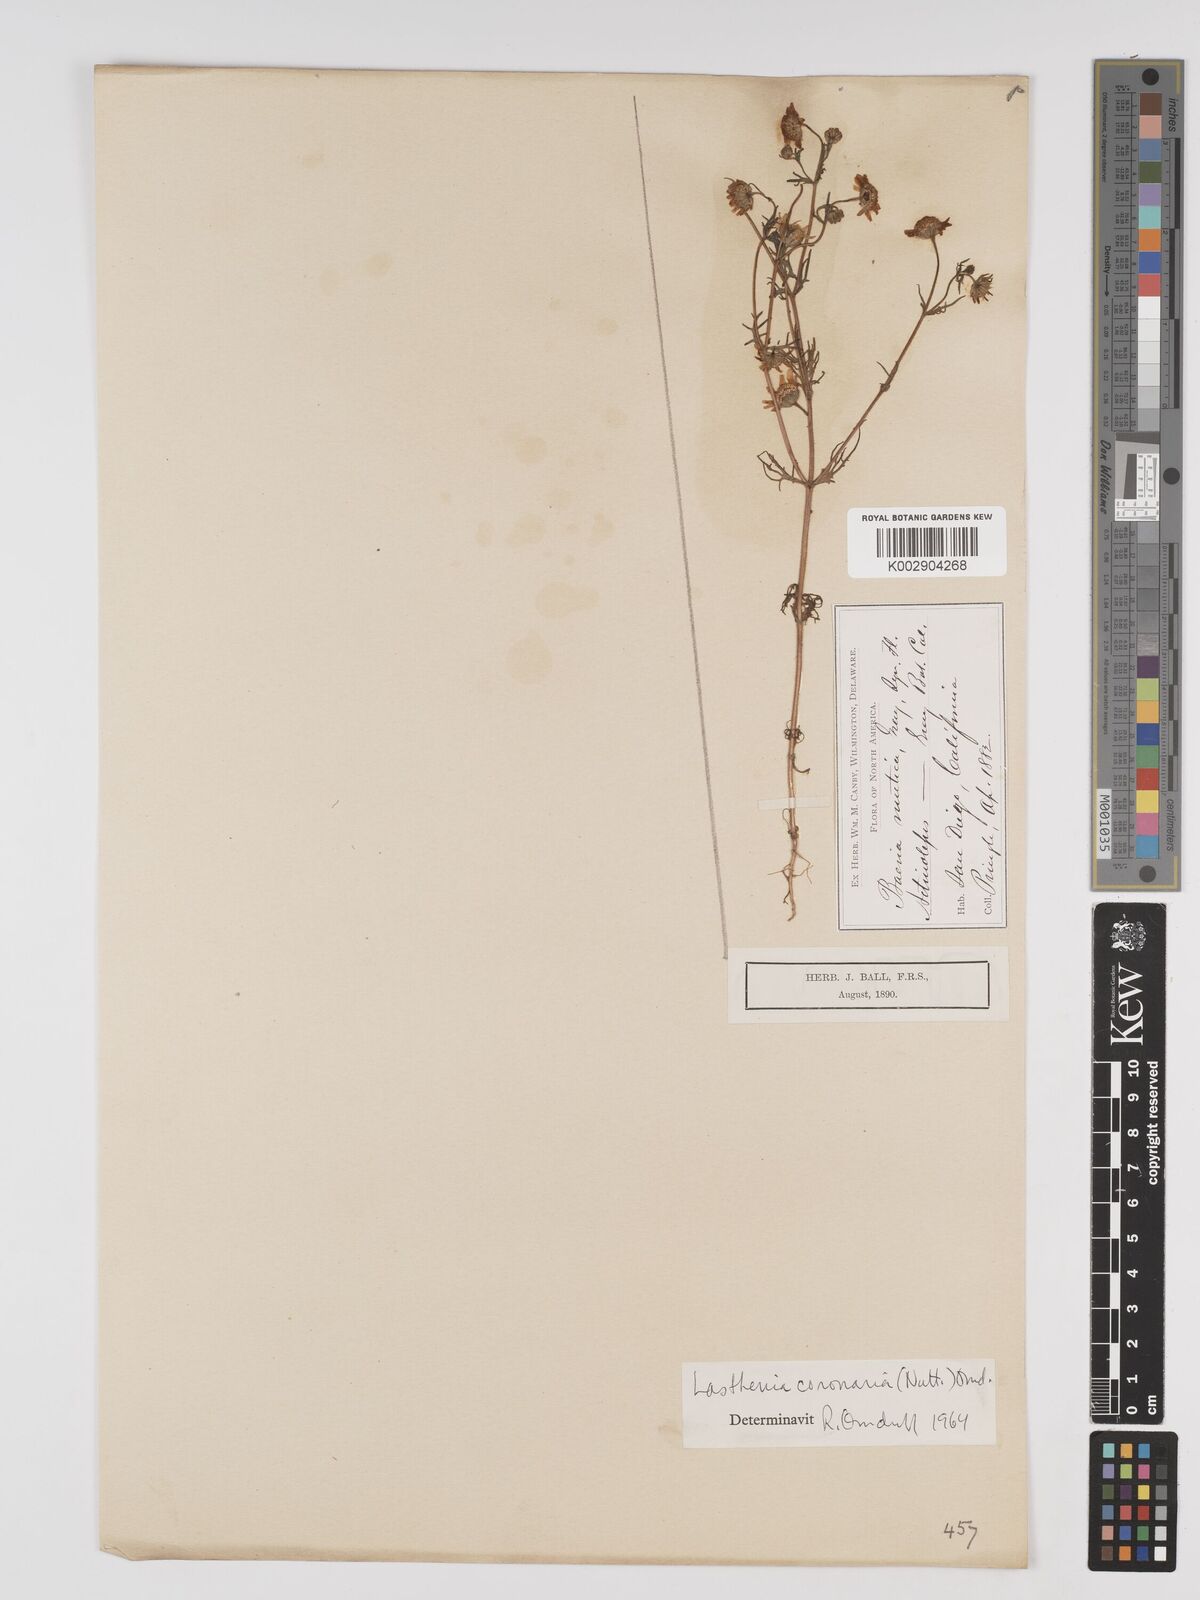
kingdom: Plantae
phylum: Tracheophyta
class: Magnoliopsida
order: Asterales
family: Asteraceae
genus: Lasthenia
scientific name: Lasthenia coronaria
